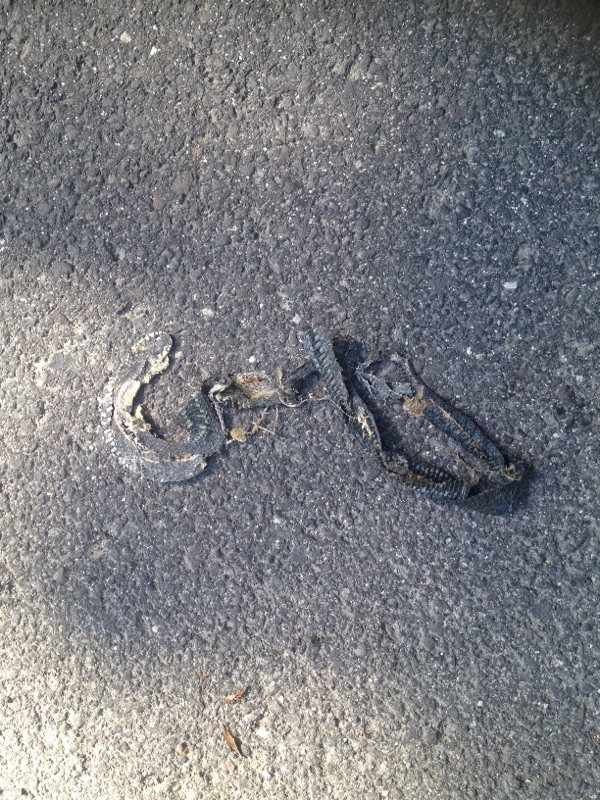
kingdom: Animalia
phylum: Chordata
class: Squamata
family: Colubridae
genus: Natrix
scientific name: Natrix natrix
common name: Grass snake
